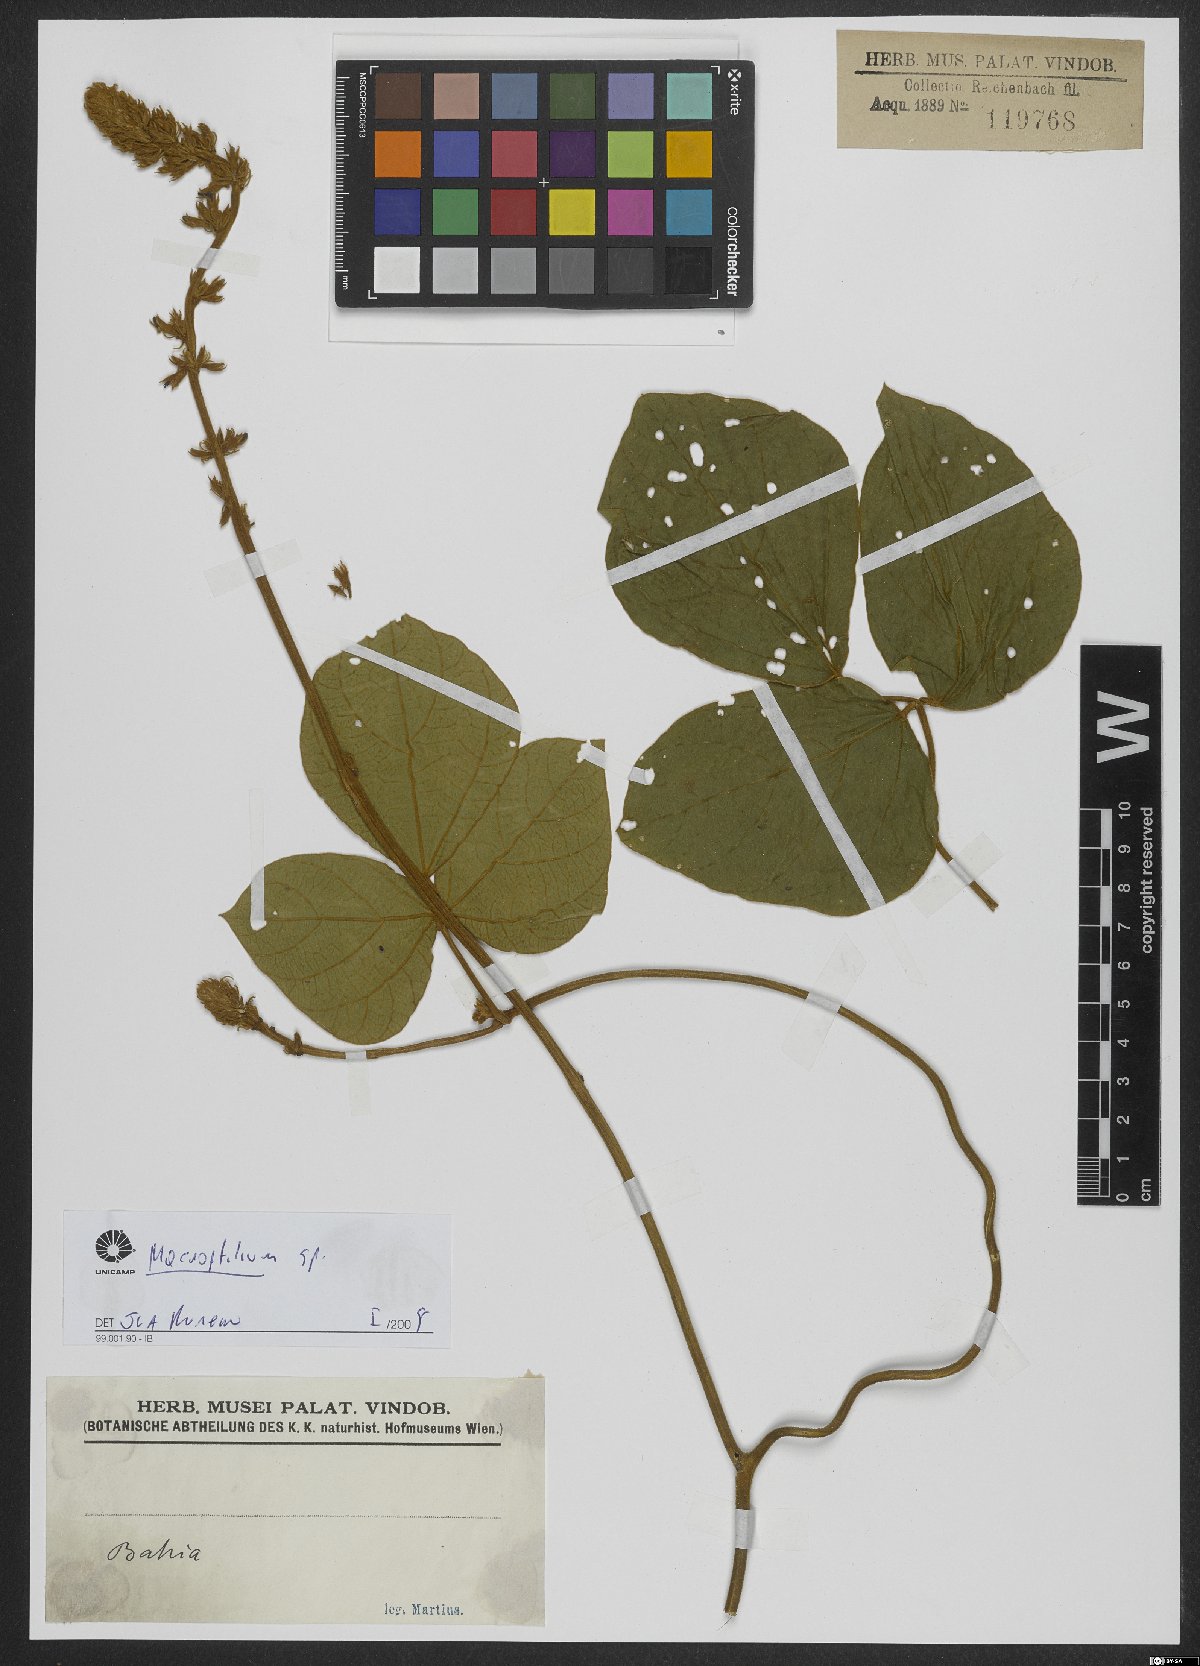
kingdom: Plantae
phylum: Tracheophyta
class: Magnoliopsida
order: Fabales
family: Fabaceae
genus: Macroptilium
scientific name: Macroptilium
